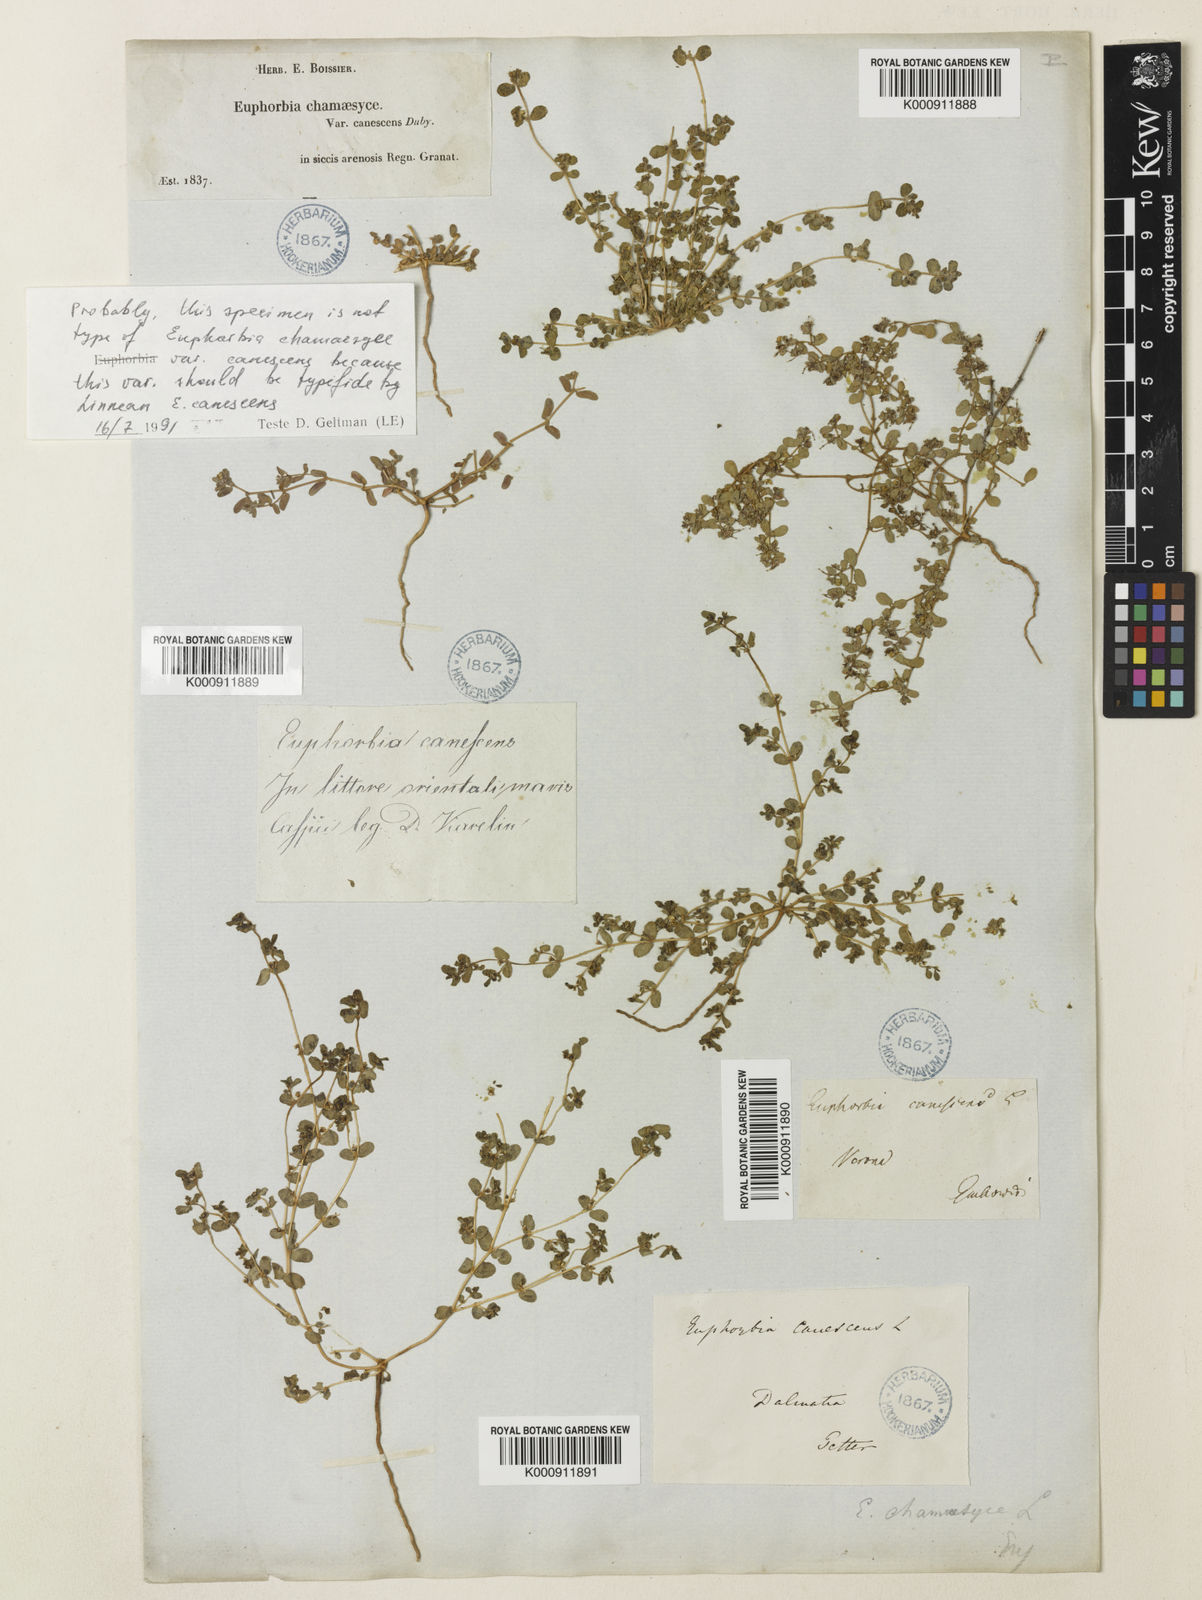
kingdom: Plantae
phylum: Tracheophyta
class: Magnoliopsida
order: Malpighiales
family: Euphorbiaceae
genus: Euphorbia
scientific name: Euphorbia chamaesyce
